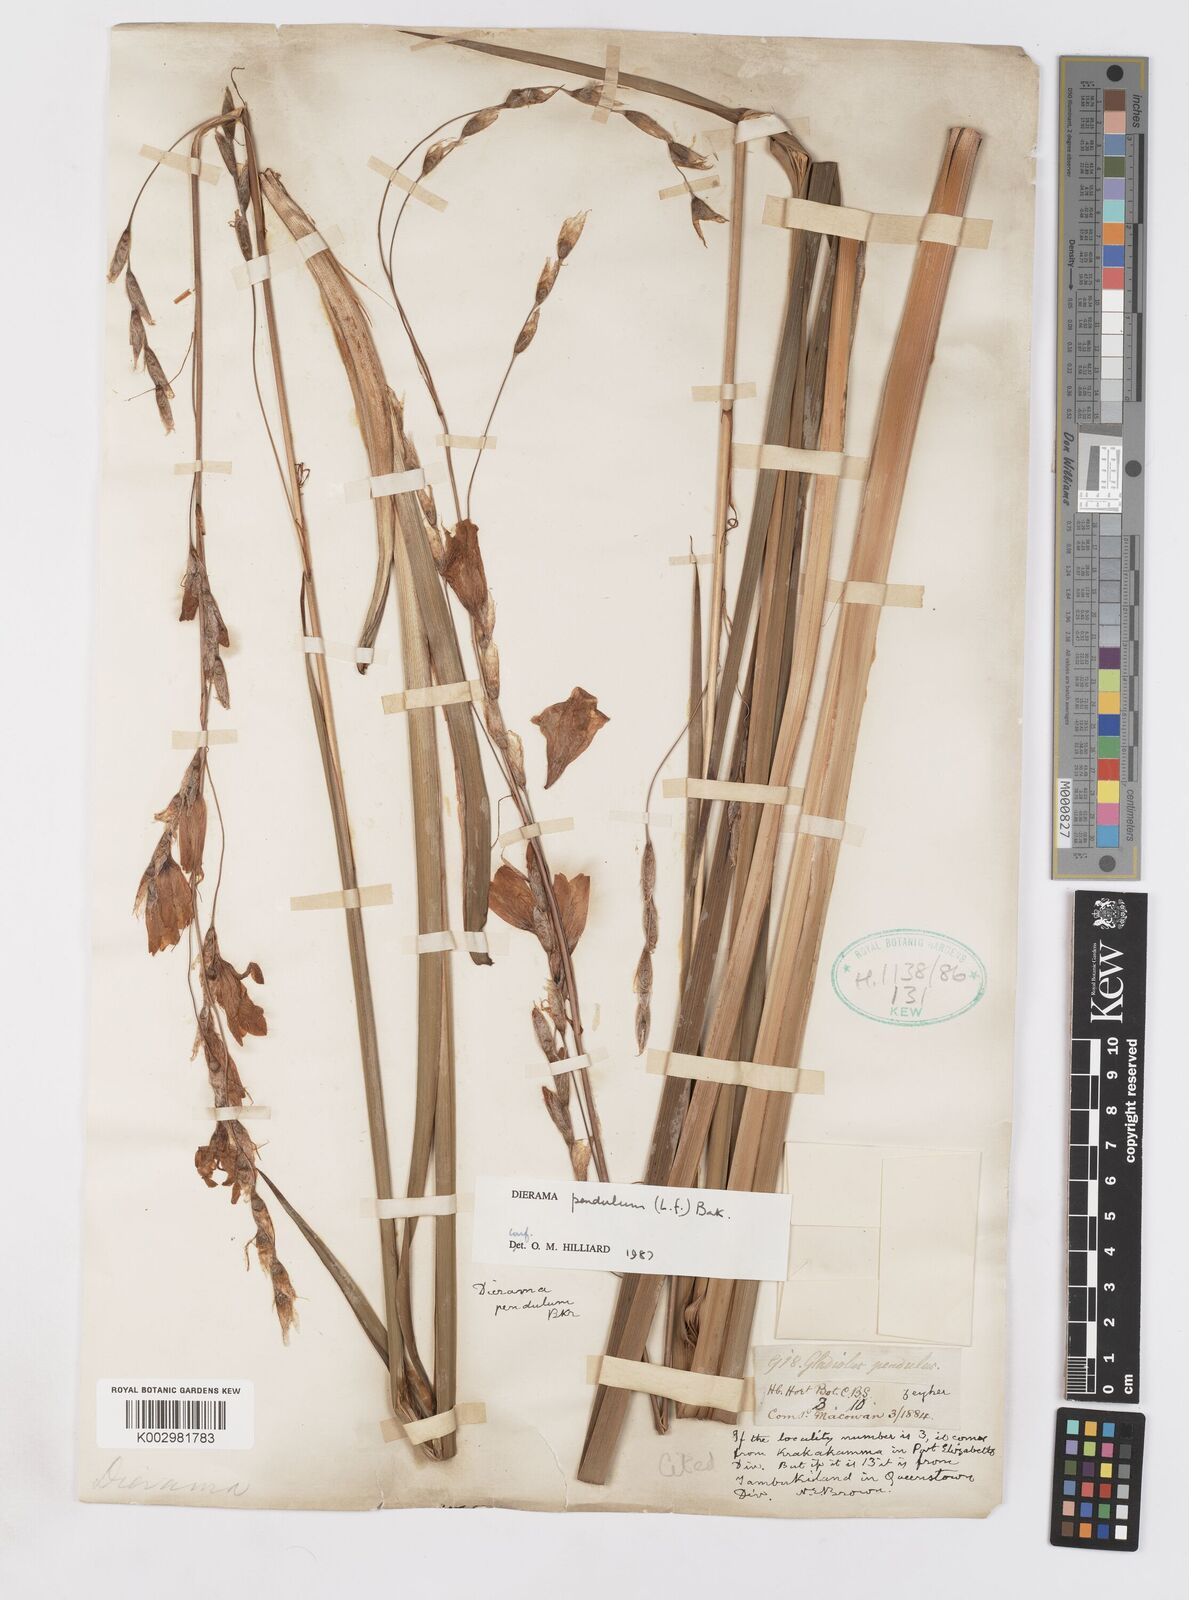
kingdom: Plantae
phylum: Tracheophyta
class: Liliopsida
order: Asparagales
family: Iridaceae
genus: Dierama
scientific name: Dierama pendulum
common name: Grassy-bell
